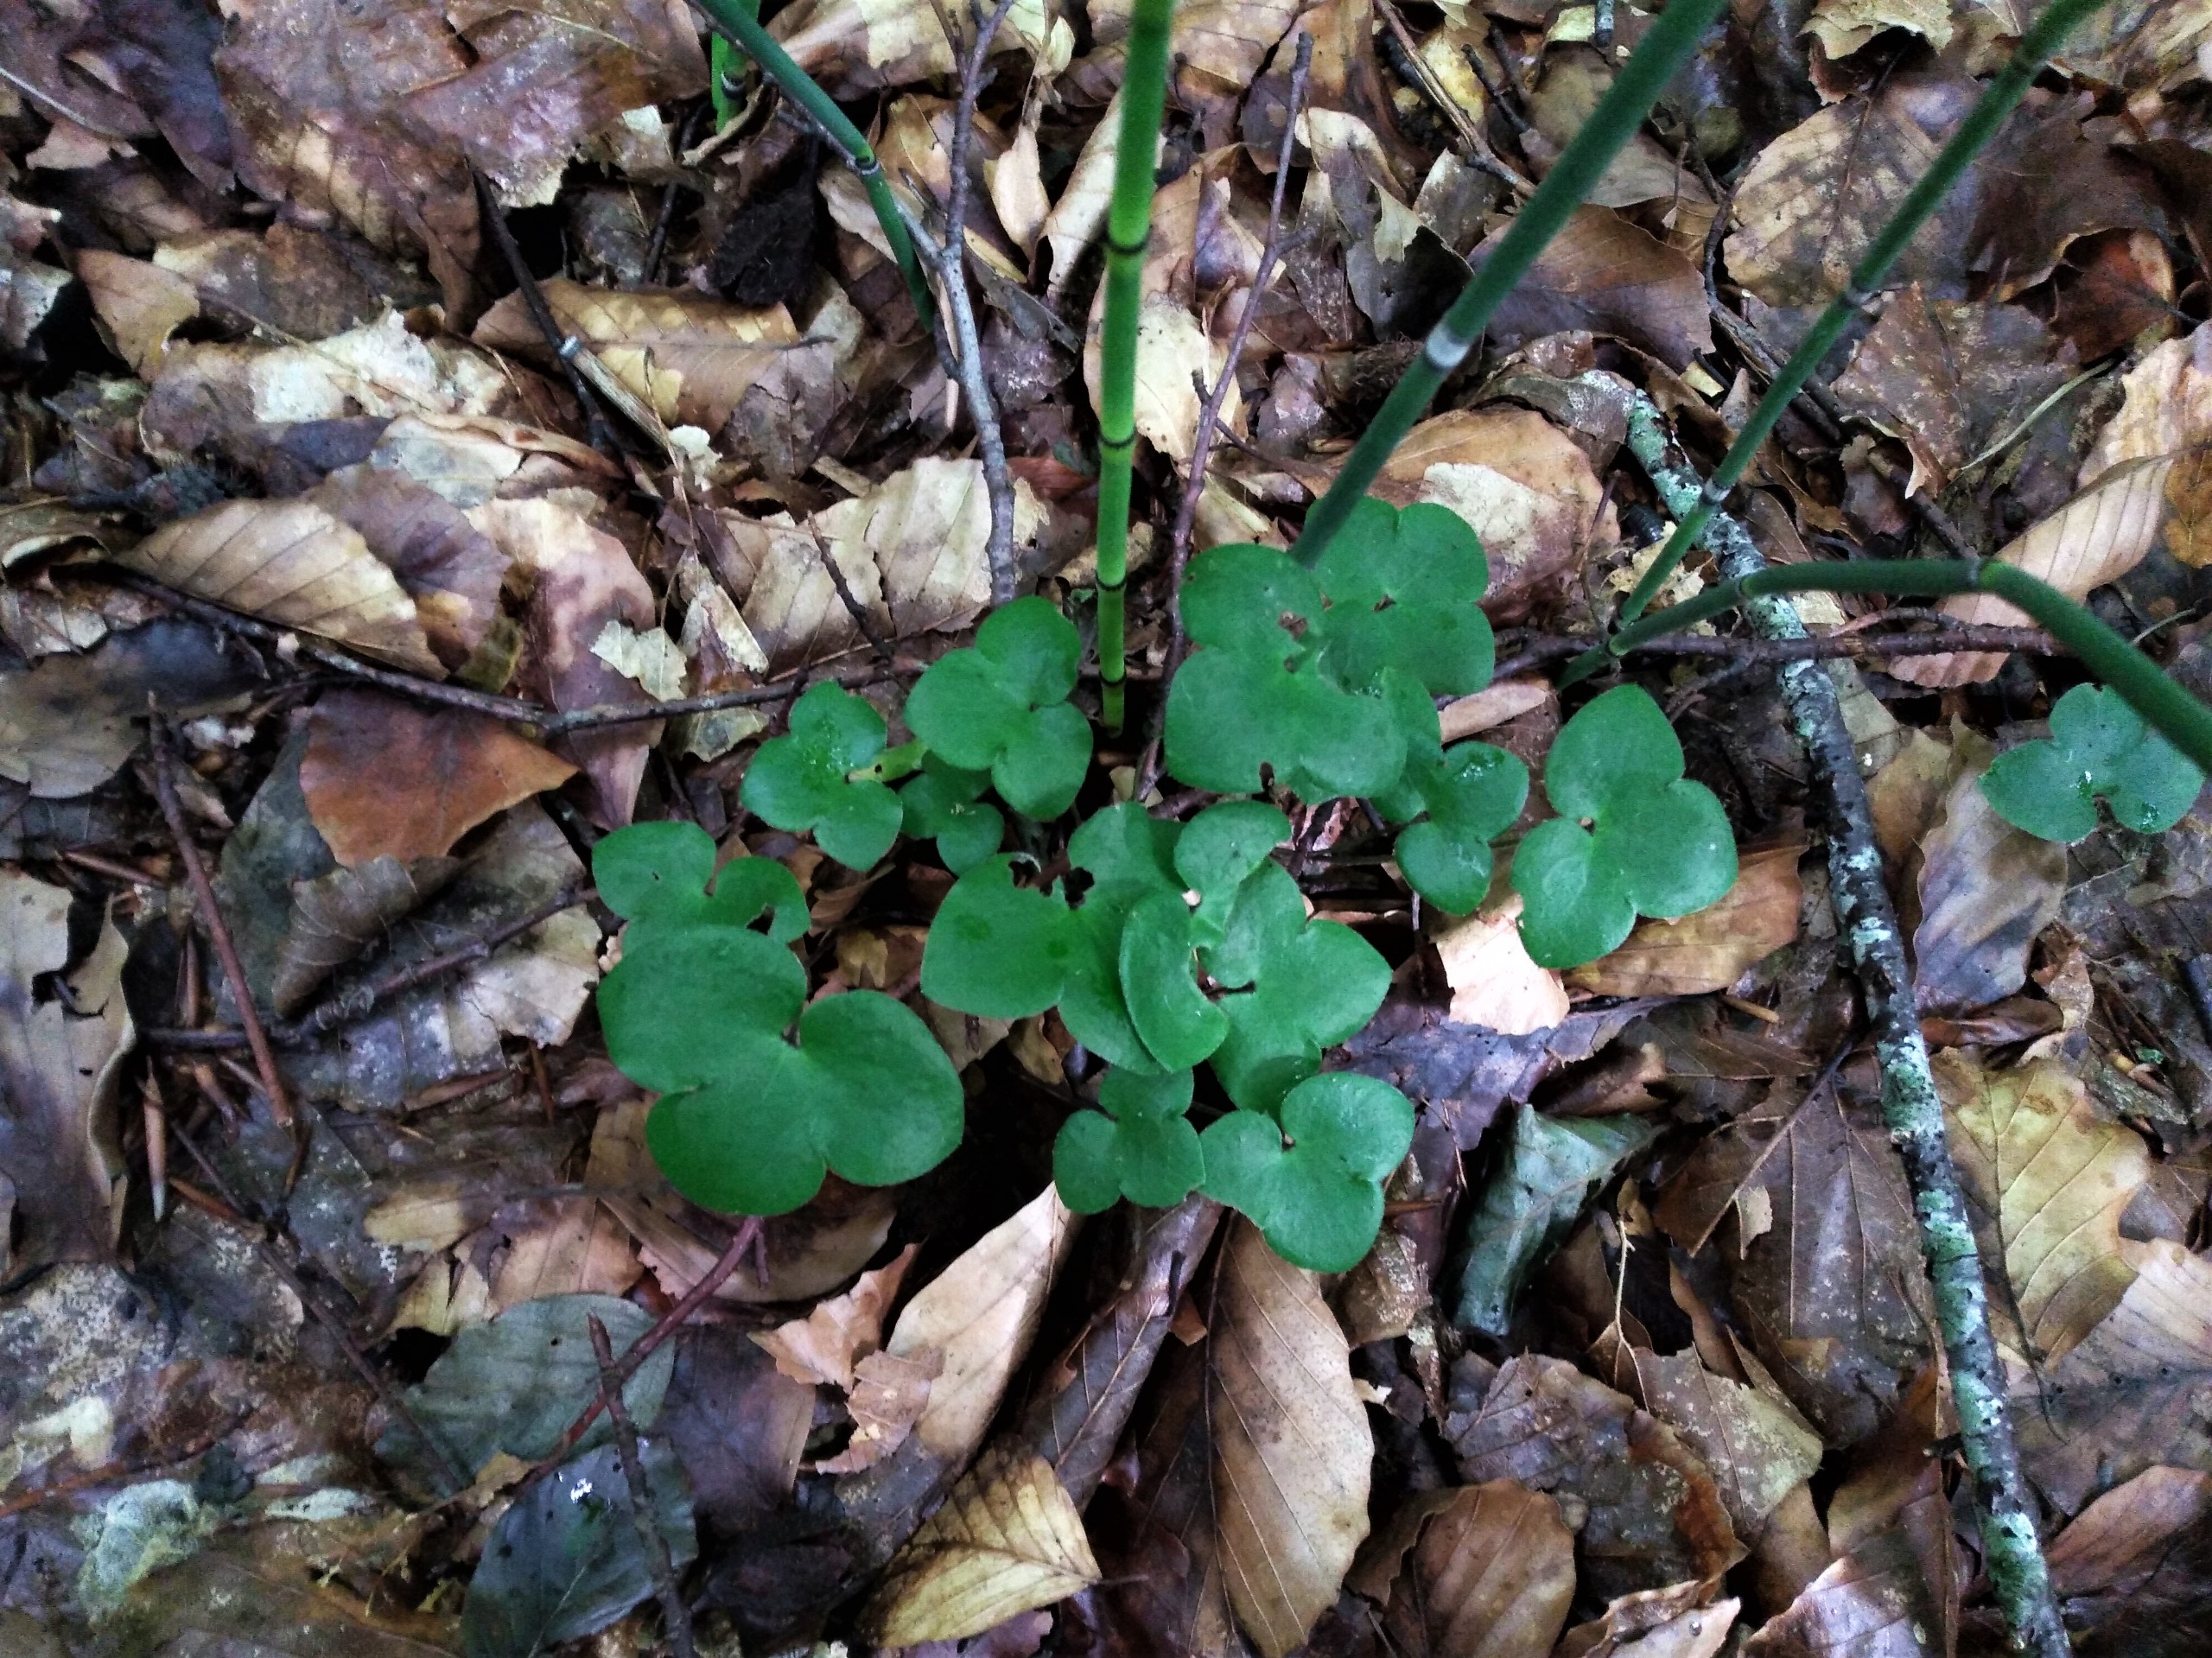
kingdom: Plantae
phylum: Tracheophyta
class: Magnoliopsida
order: Ranunculales
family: Ranunculaceae
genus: Hepatica
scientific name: Hepatica nobilis
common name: Blå anemone
